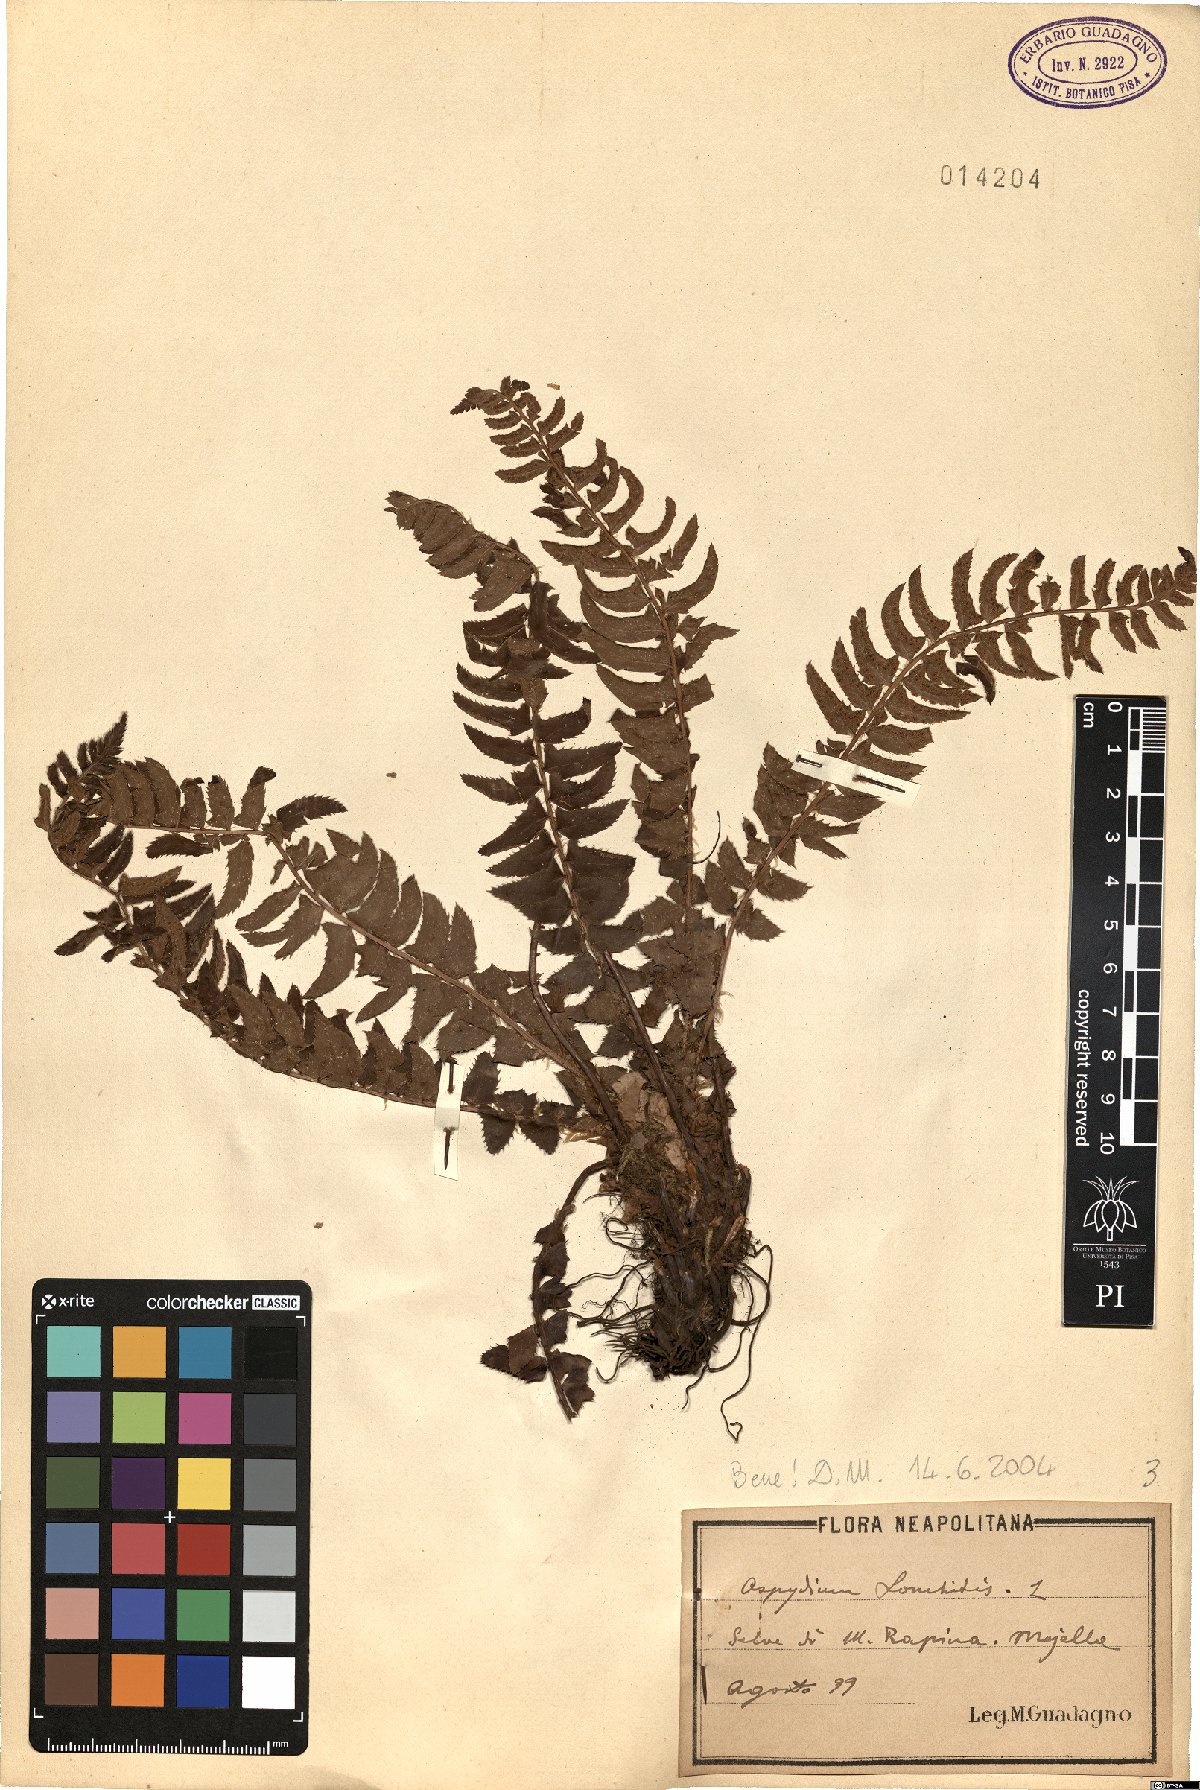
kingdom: Plantae
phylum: Tracheophyta
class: Polypodiopsida
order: Polypodiales
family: Dryopteridaceae
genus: Polystichum
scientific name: Polystichum lonchitis
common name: Holly fern
